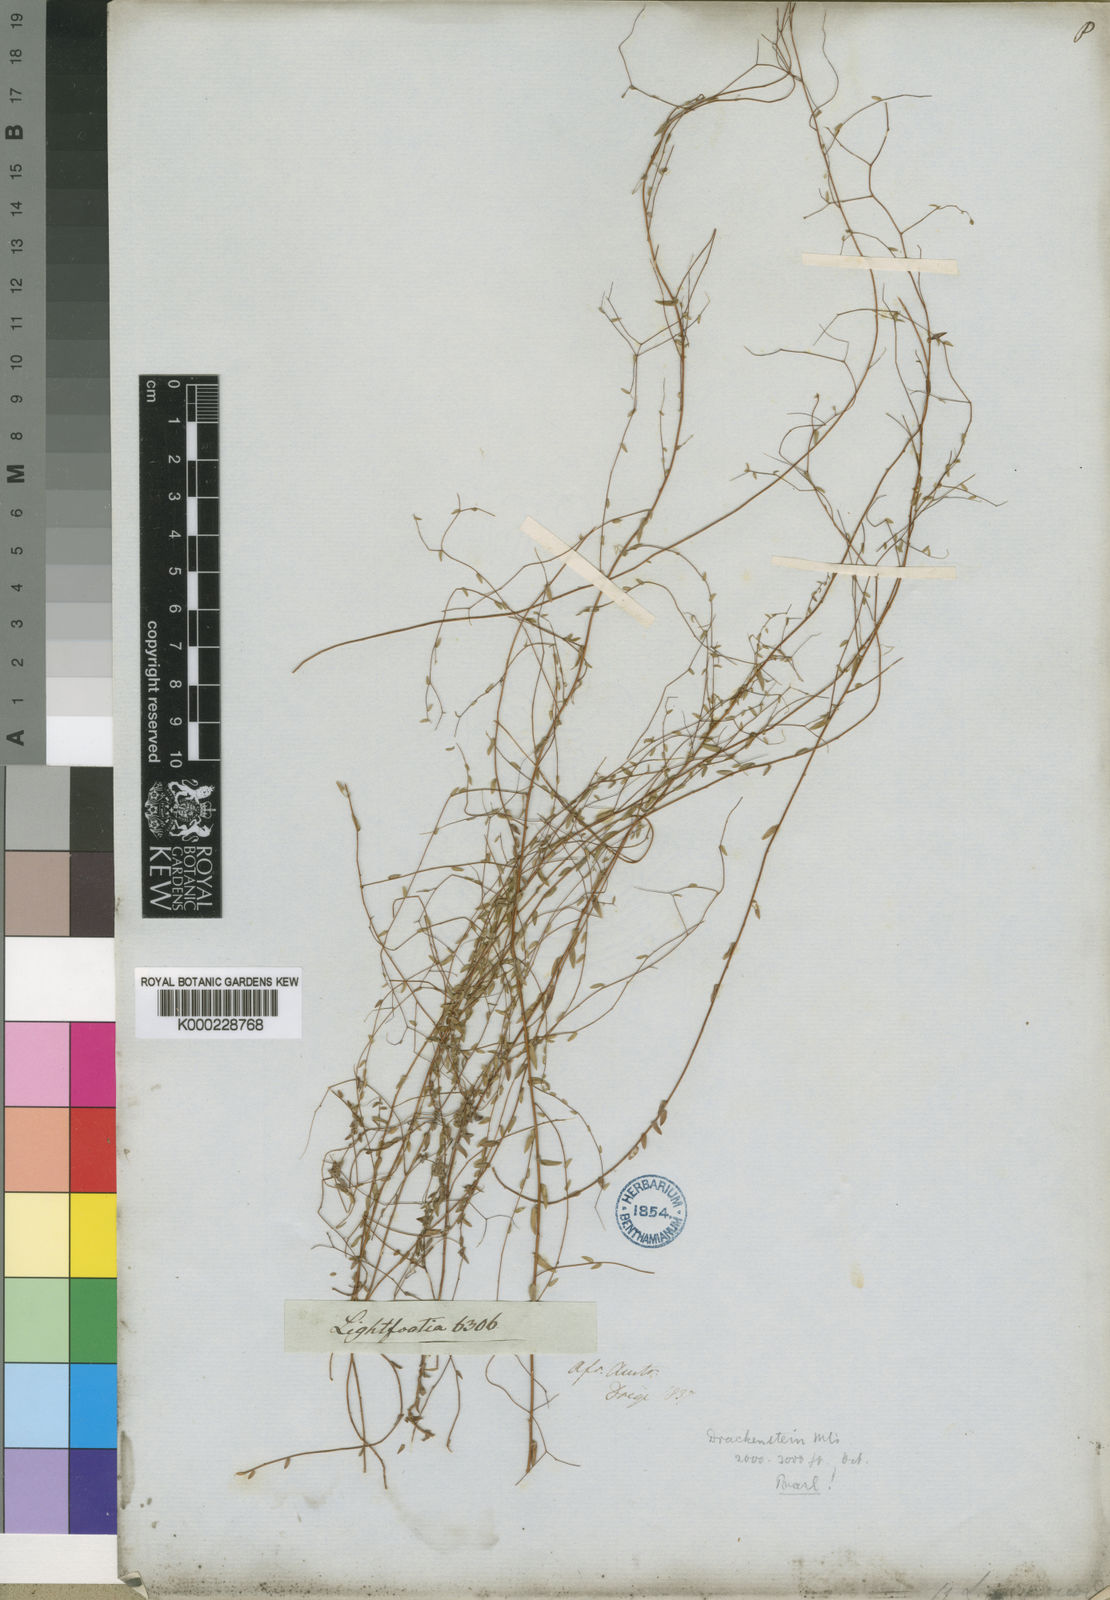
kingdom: Plantae
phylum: Tracheophyta
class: Magnoliopsida
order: Malvales
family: Bixaceae
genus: Lightfootia
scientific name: Lightfootia
